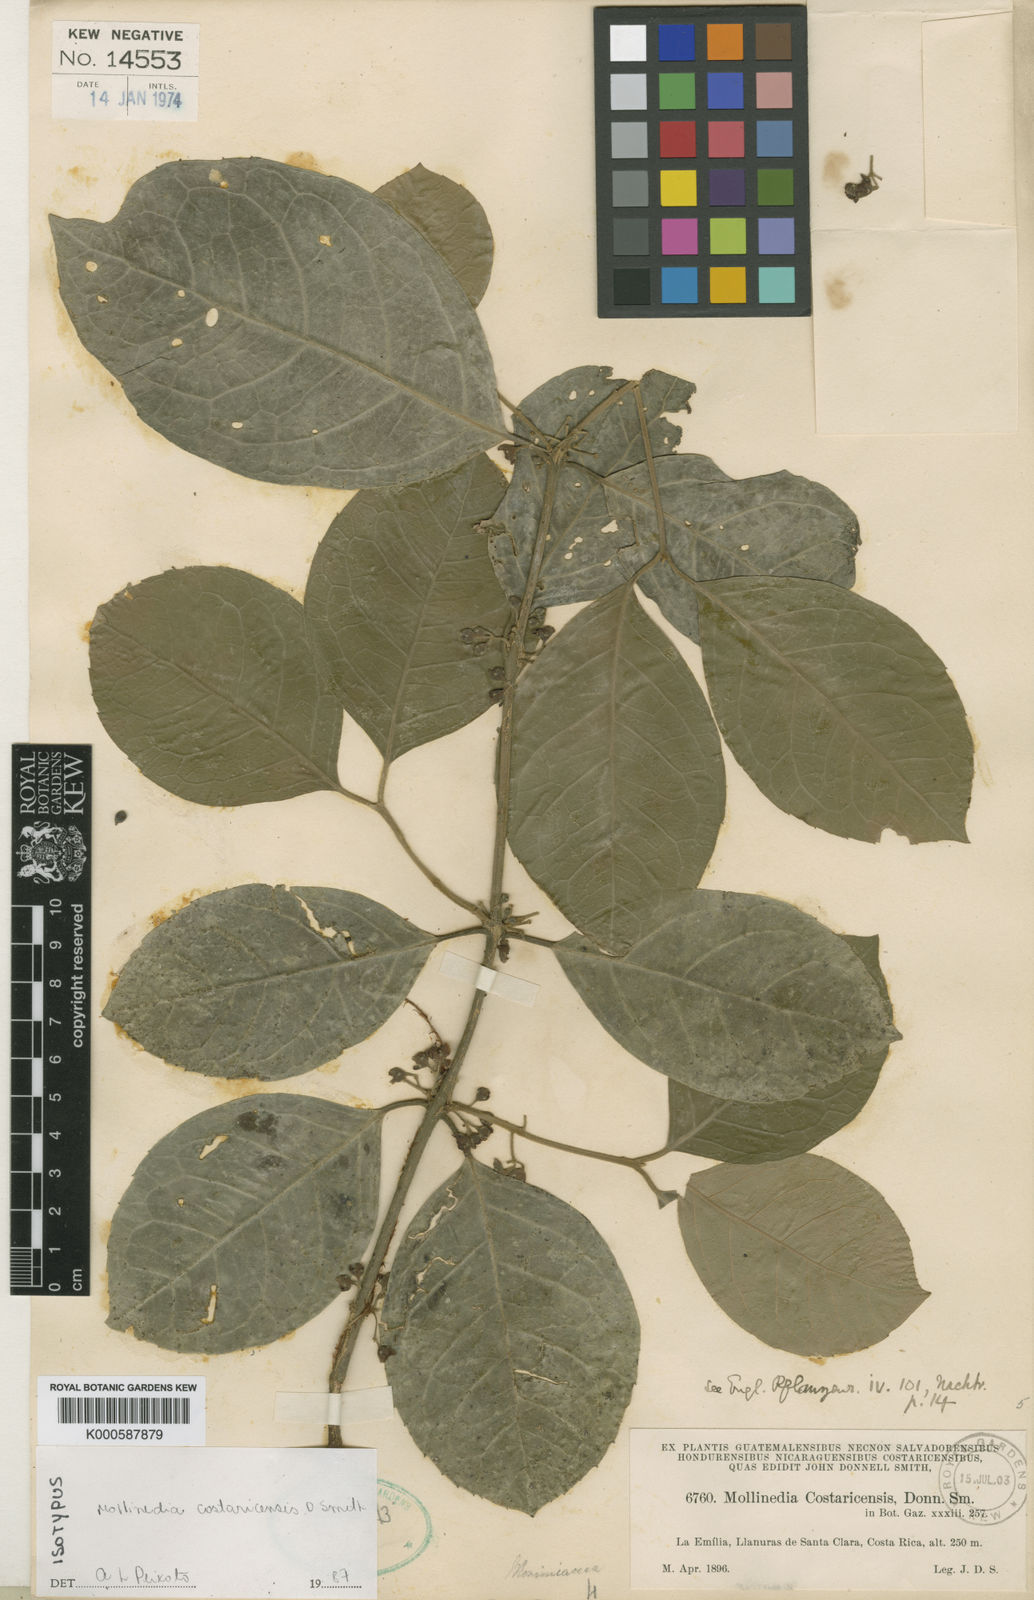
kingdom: Plantae
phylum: Tracheophyta
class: Magnoliopsida
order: Laurales
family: Monimiaceae
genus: Mollinedia
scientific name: Mollinedia costaricensis
